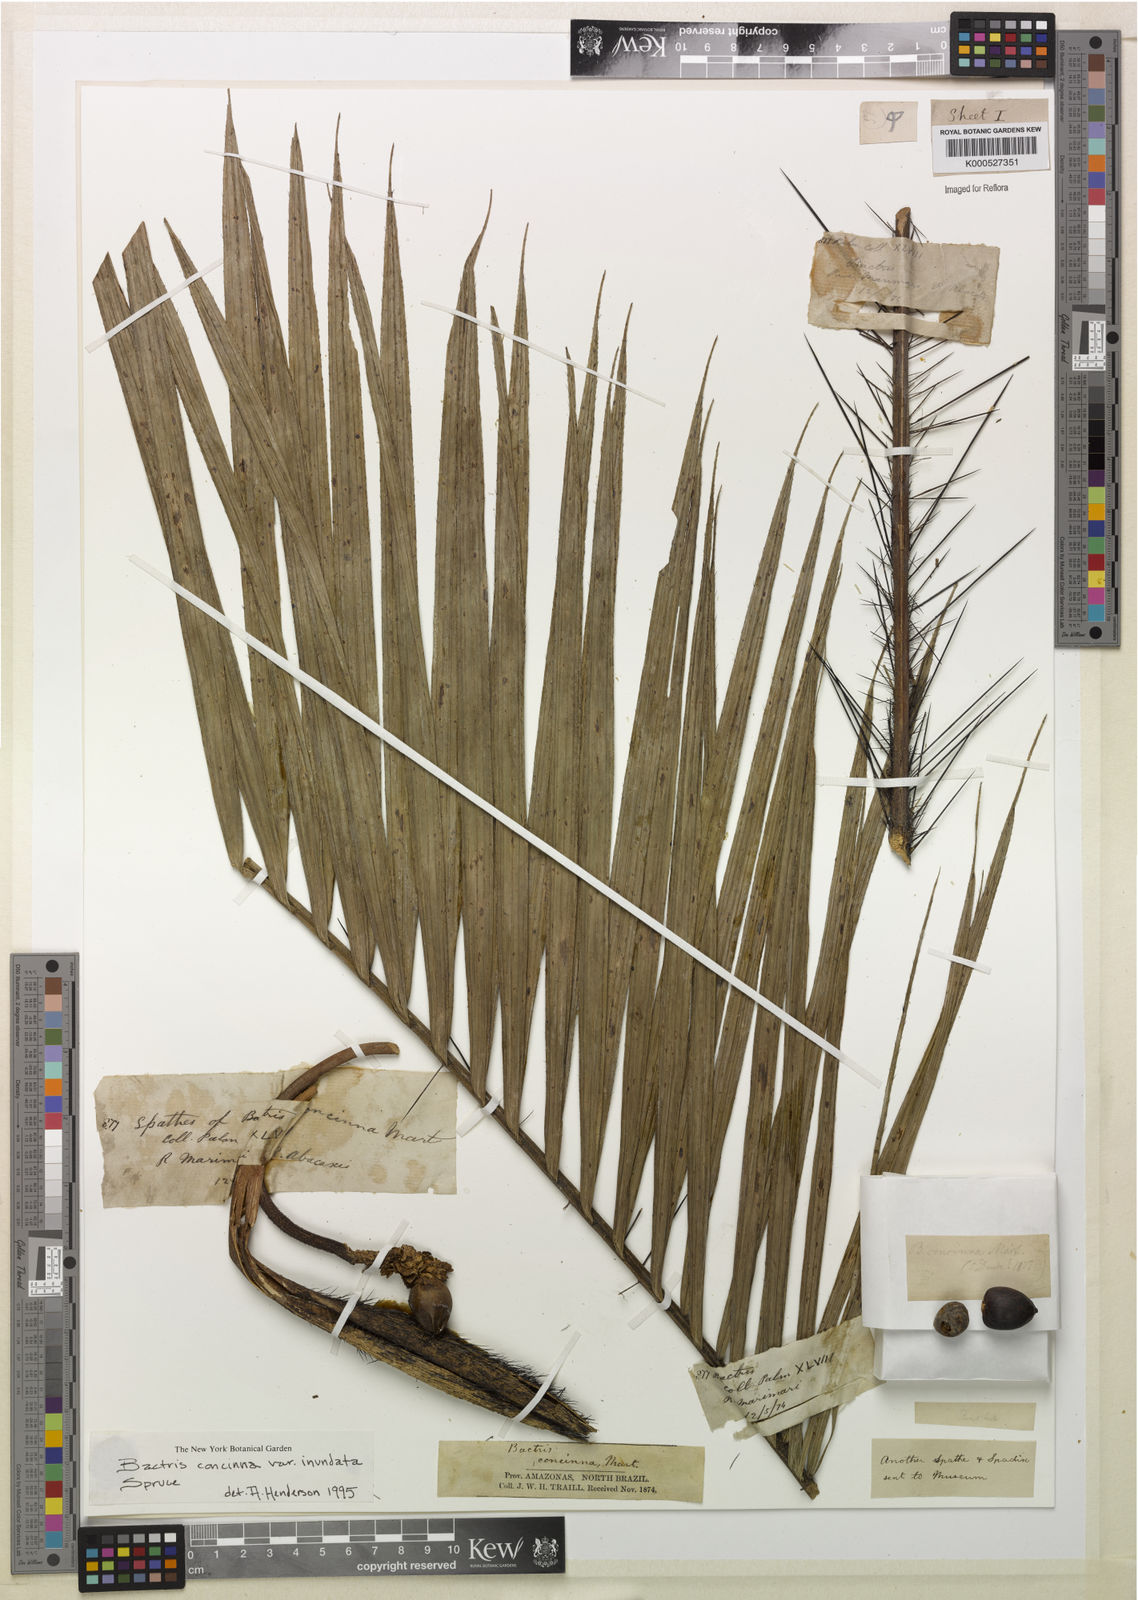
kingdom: Plantae
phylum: Tracheophyta
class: Liliopsida
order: Arecales
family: Arecaceae
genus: Bactris
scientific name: Bactris concinna
